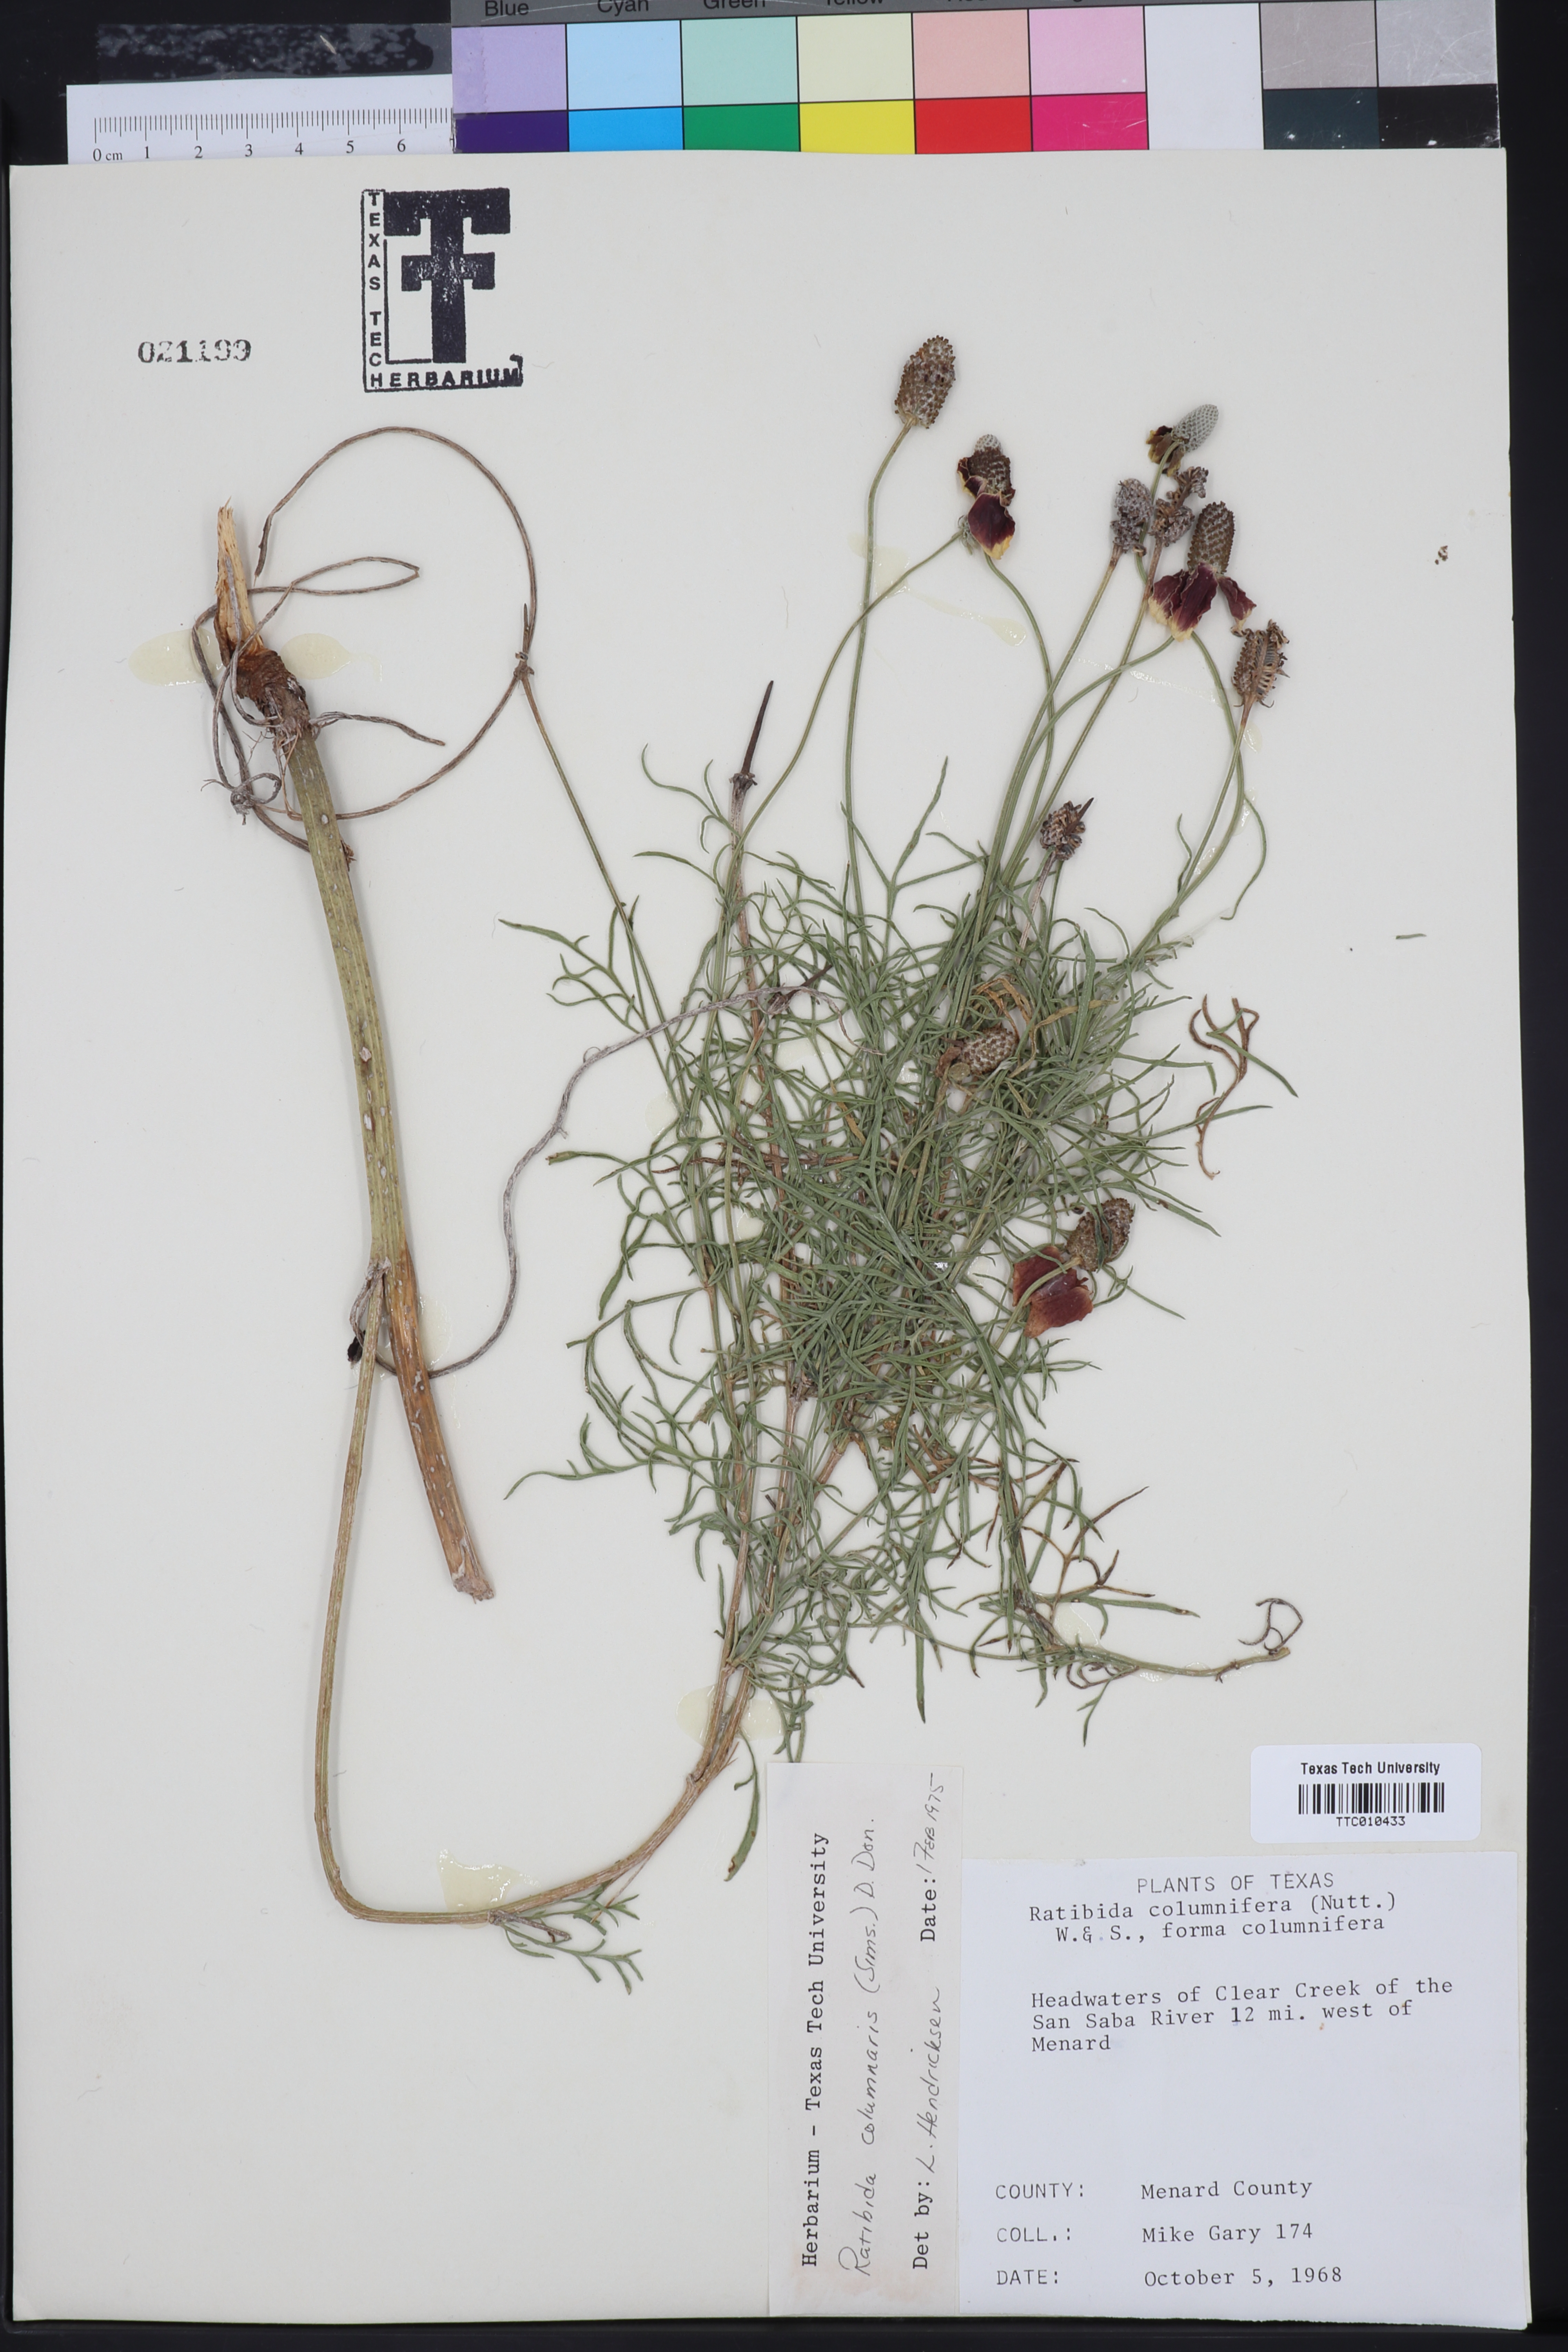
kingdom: Plantae
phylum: Tracheophyta
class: Magnoliopsida
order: Asterales
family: Asteraceae
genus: Ratibida
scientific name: Ratibida columnifera
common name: Prairie coneflower
